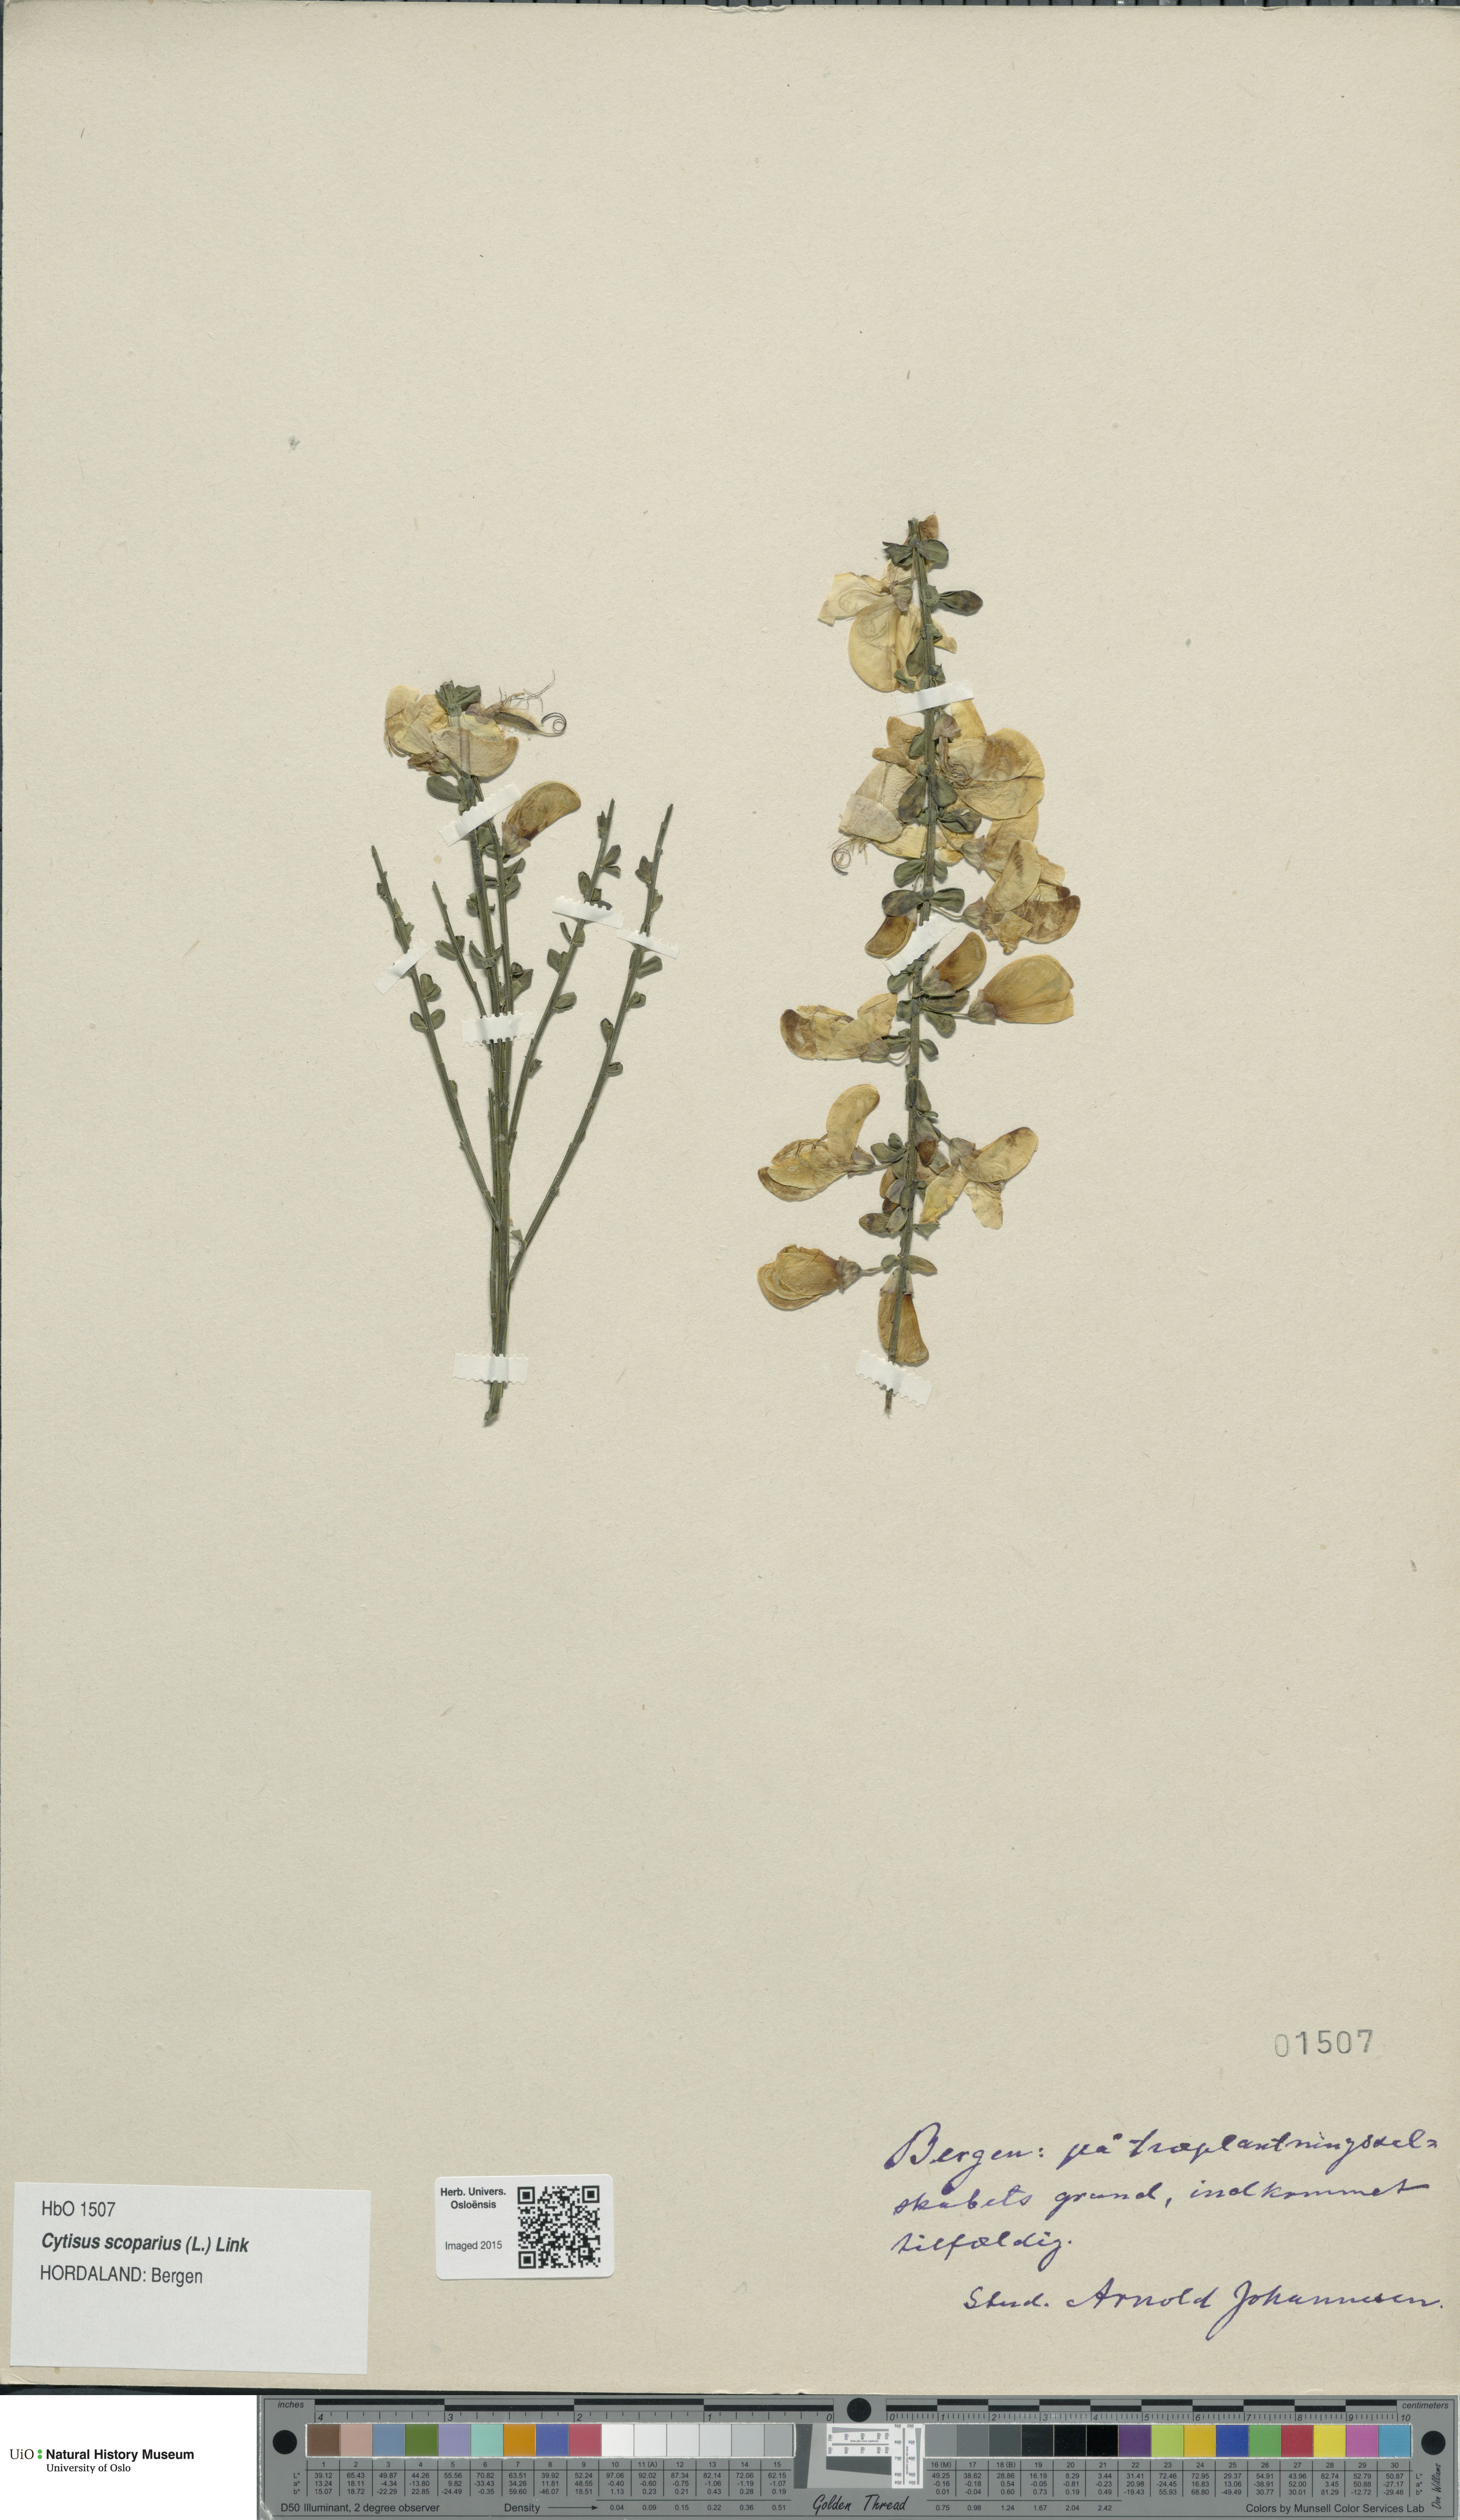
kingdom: Plantae
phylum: Tracheophyta
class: Magnoliopsida
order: Fabales
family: Fabaceae
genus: Cytisus
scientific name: Cytisus scoparius
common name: Scotch broom
